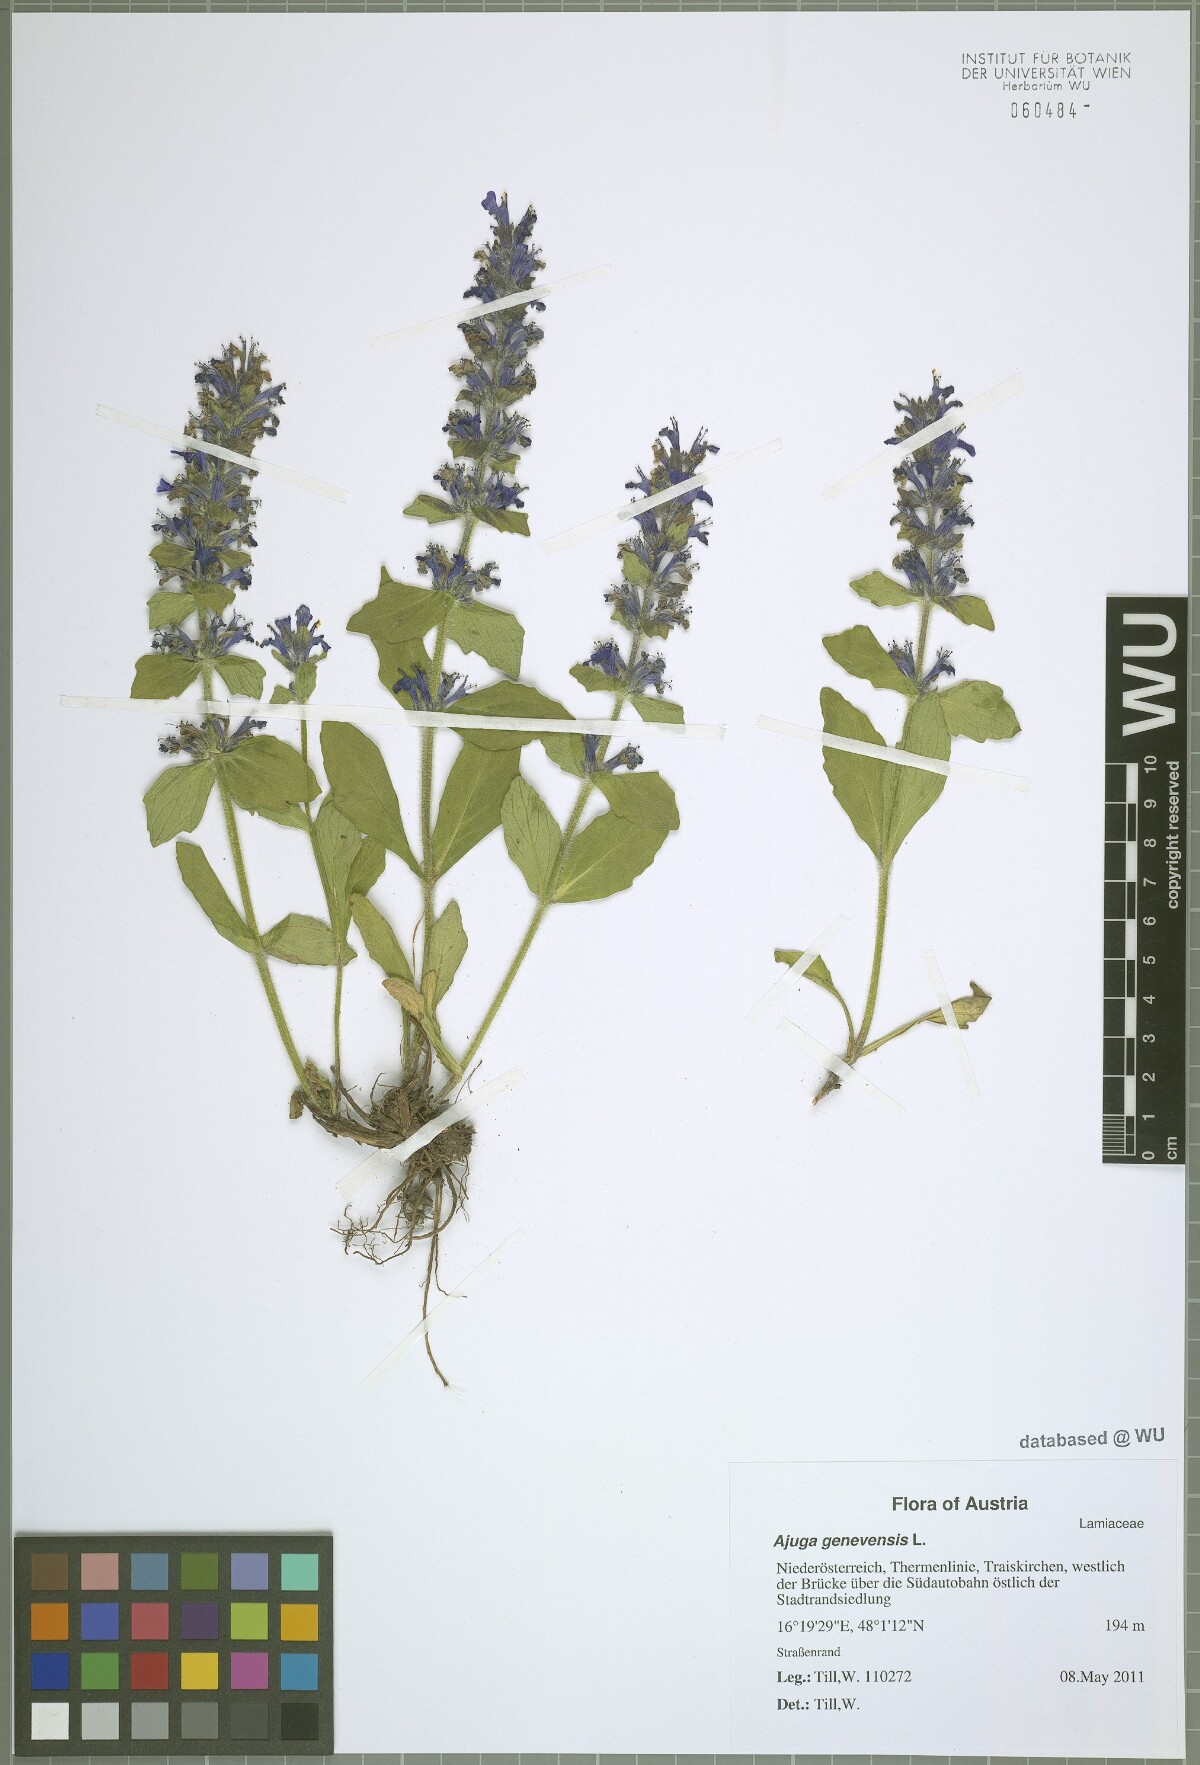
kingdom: Plantae
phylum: Tracheophyta
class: Magnoliopsida
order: Lamiales
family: Lamiaceae
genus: Ajuga
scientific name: Ajuga genevensis
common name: Blue bugle
